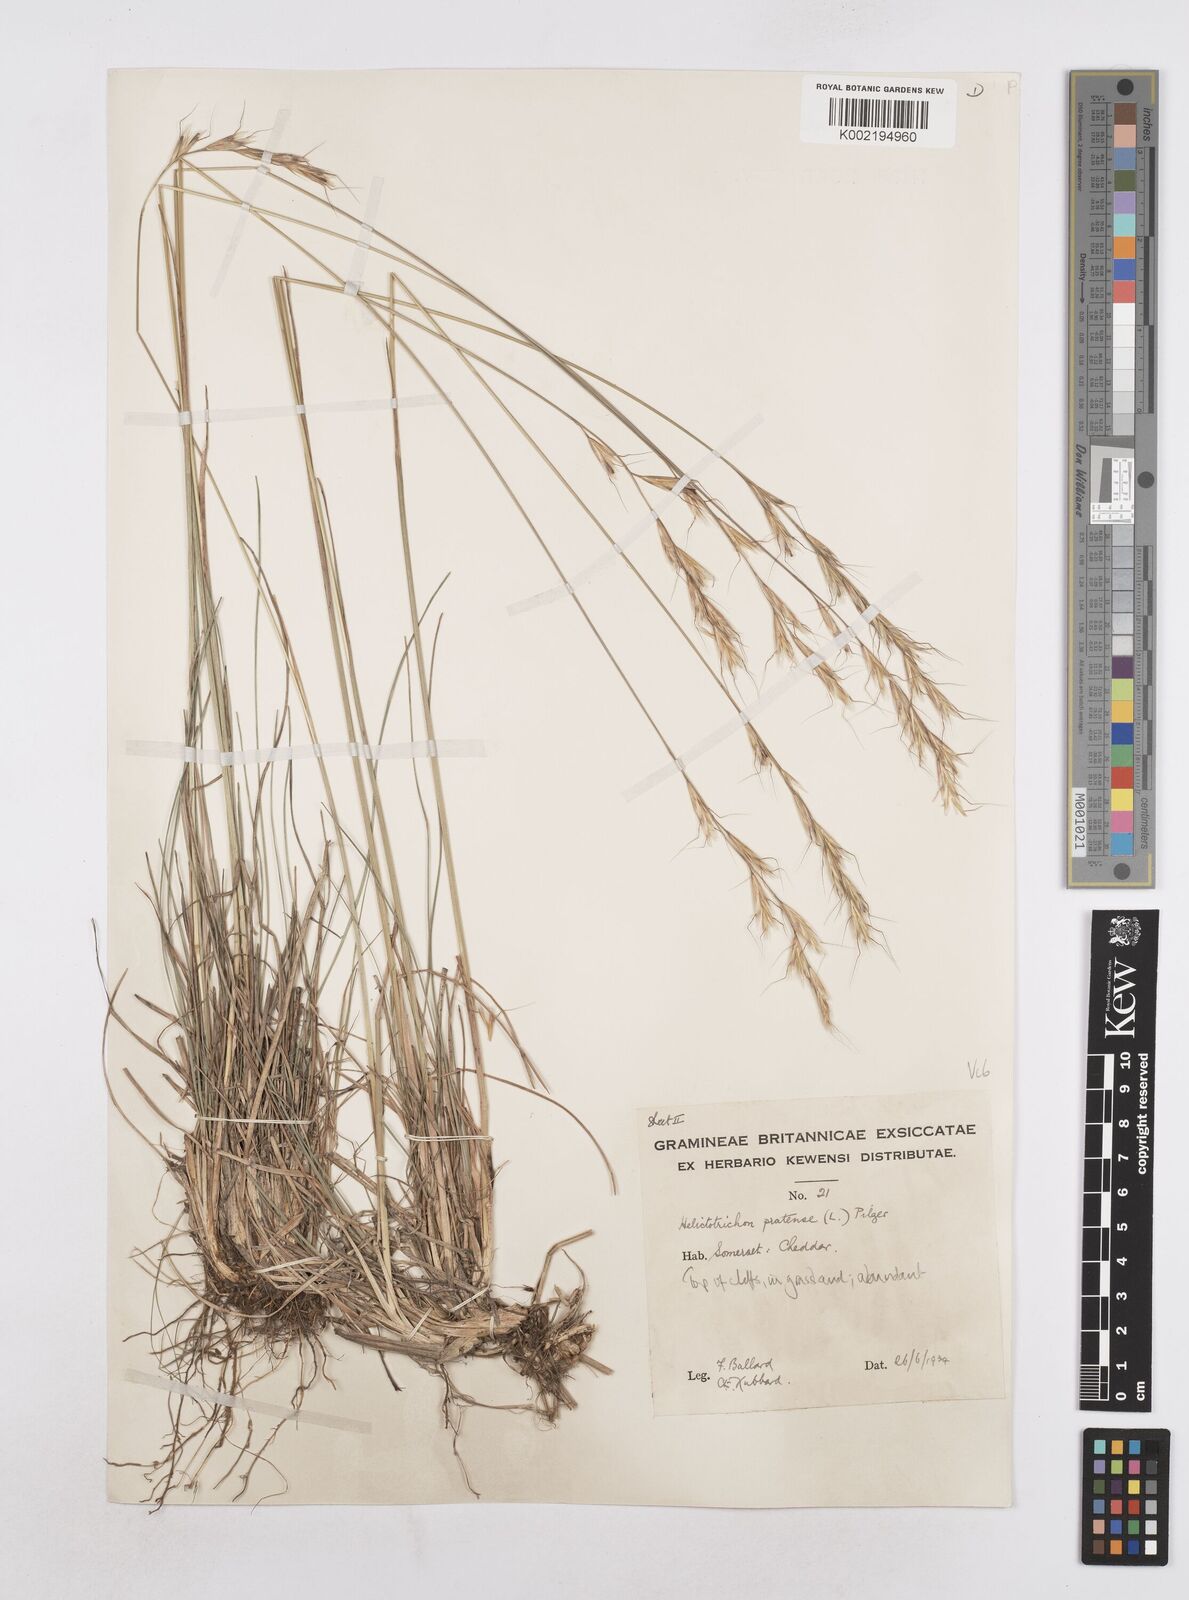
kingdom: Plantae
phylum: Tracheophyta
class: Liliopsida
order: Poales
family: Poaceae
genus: Helictochloa
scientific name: Helictochloa pratensis
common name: Meadow oat grass
